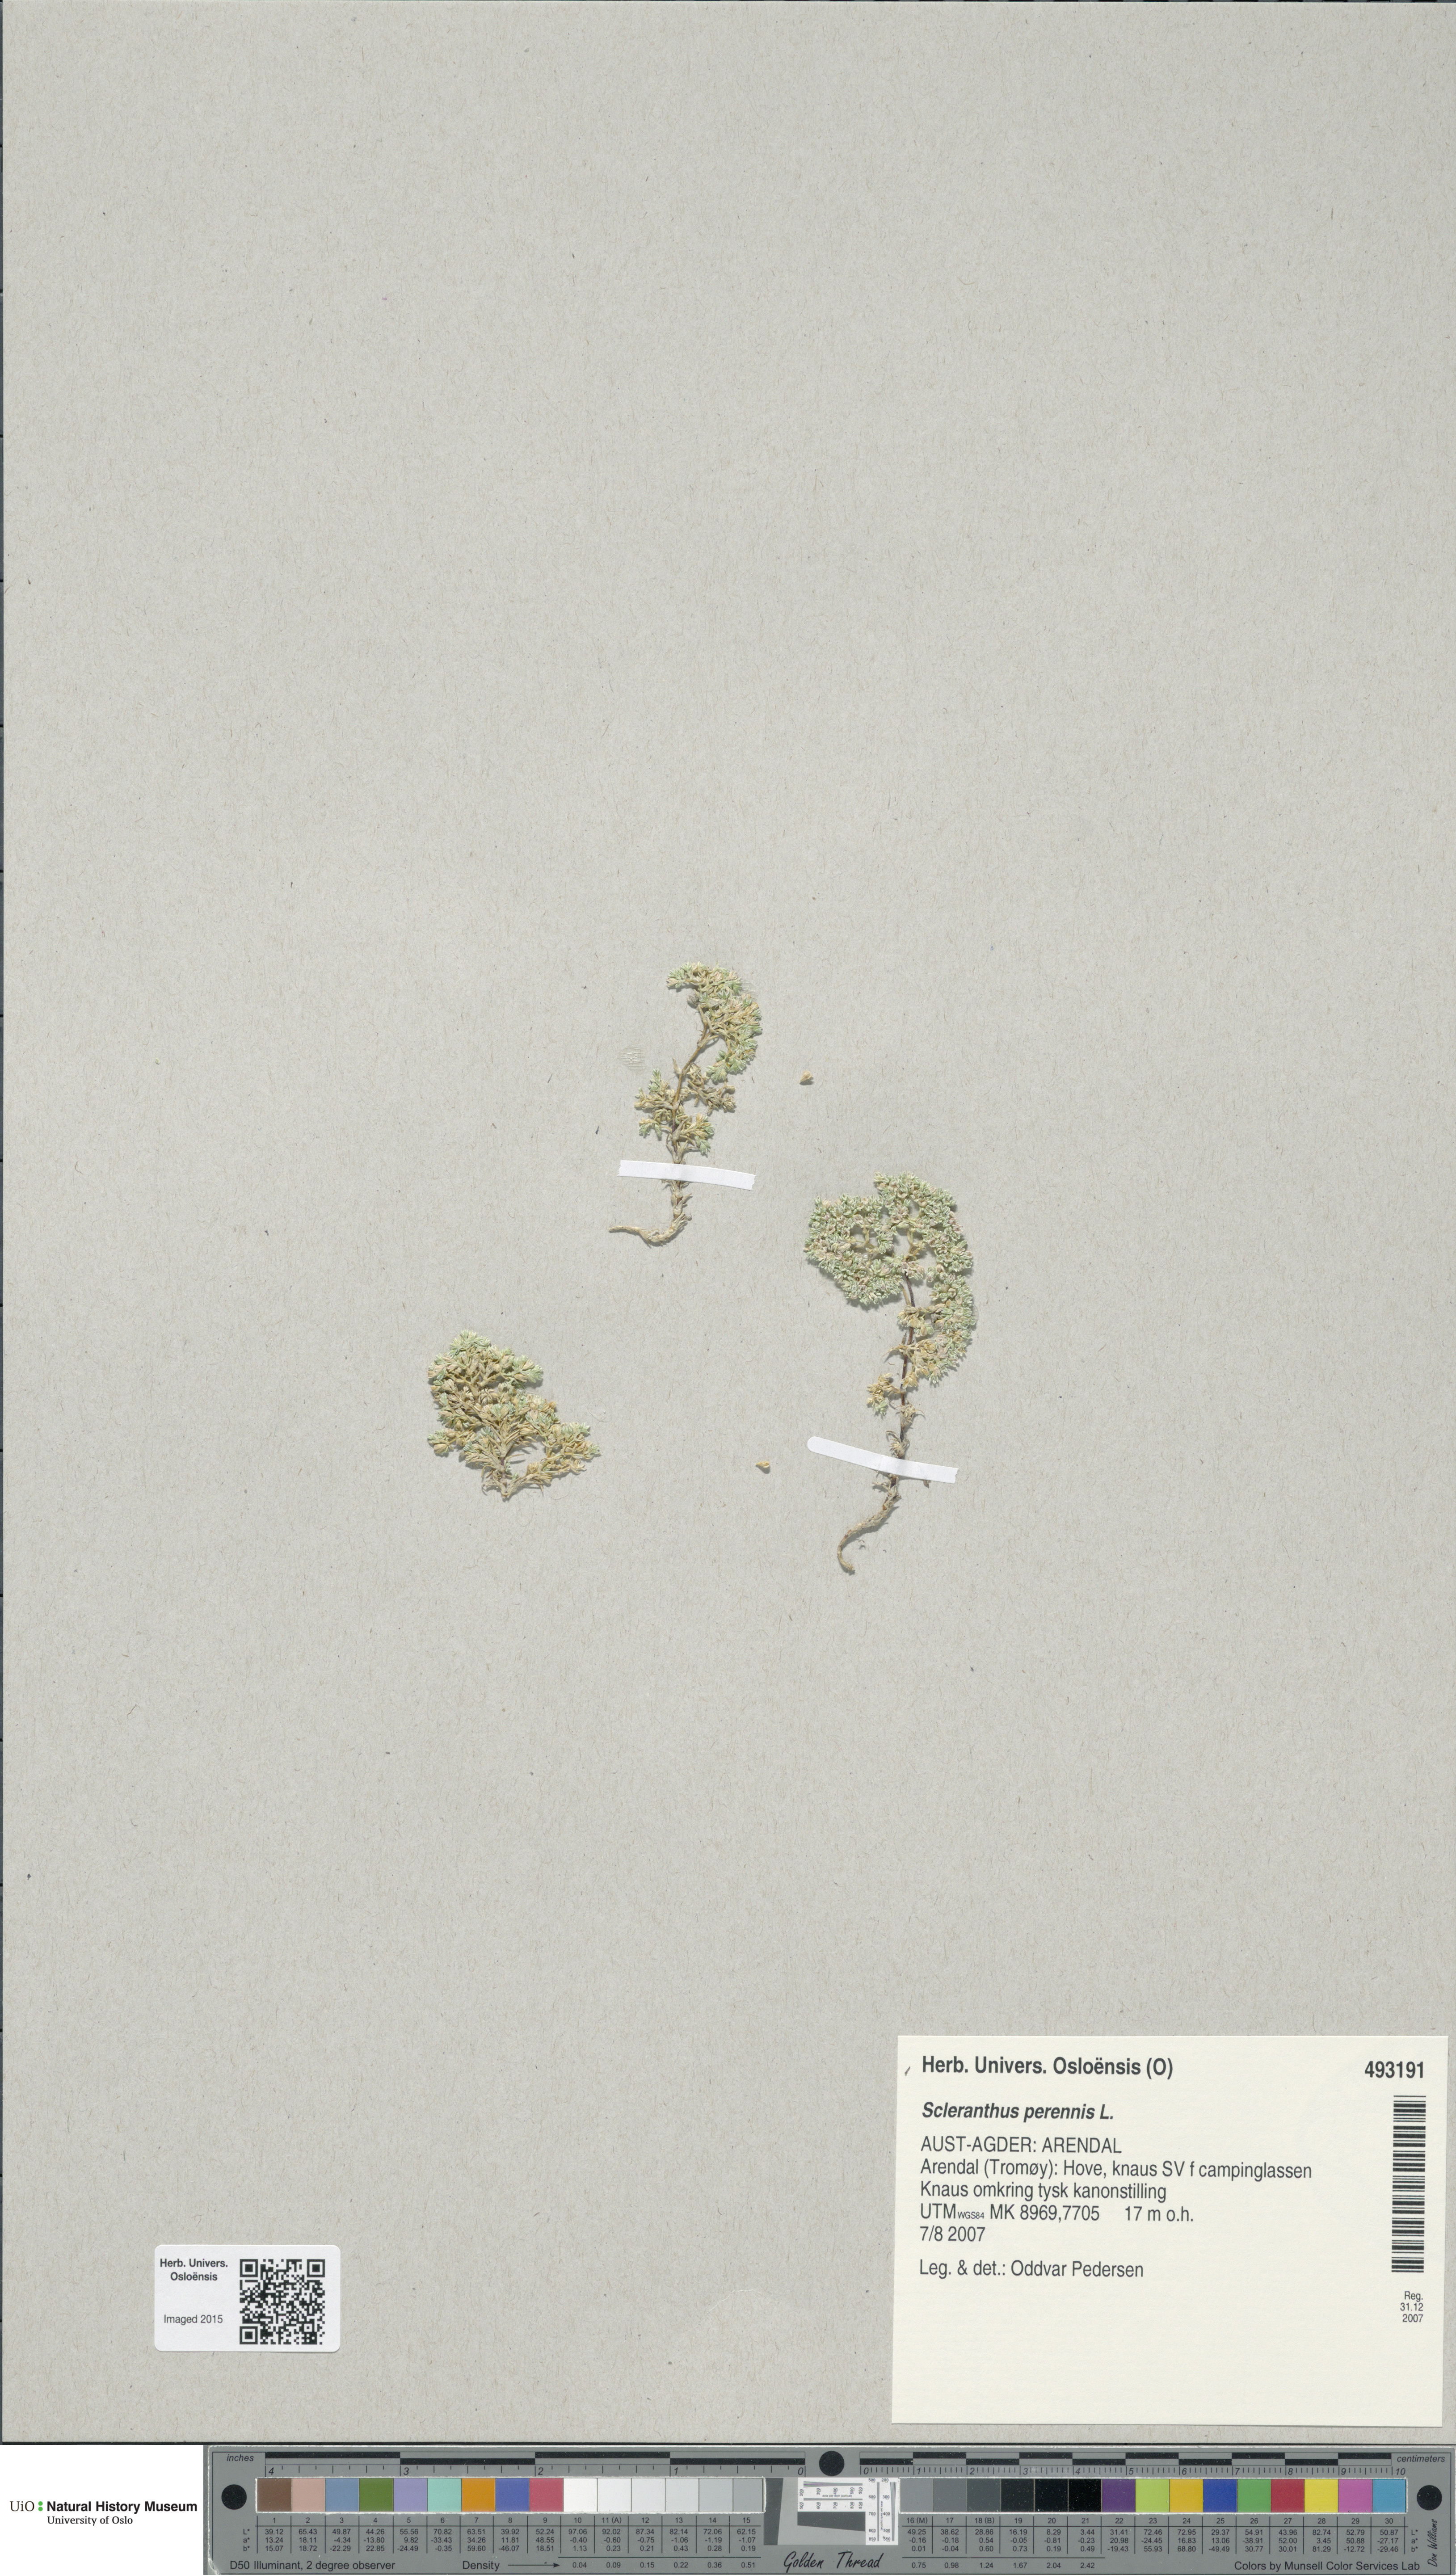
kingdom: Plantae
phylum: Tracheophyta
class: Magnoliopsida
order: Caryophyllales
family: Caryophyllaceae
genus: Scleranthus
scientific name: Scleranthus perennis
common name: Perennial knawel
